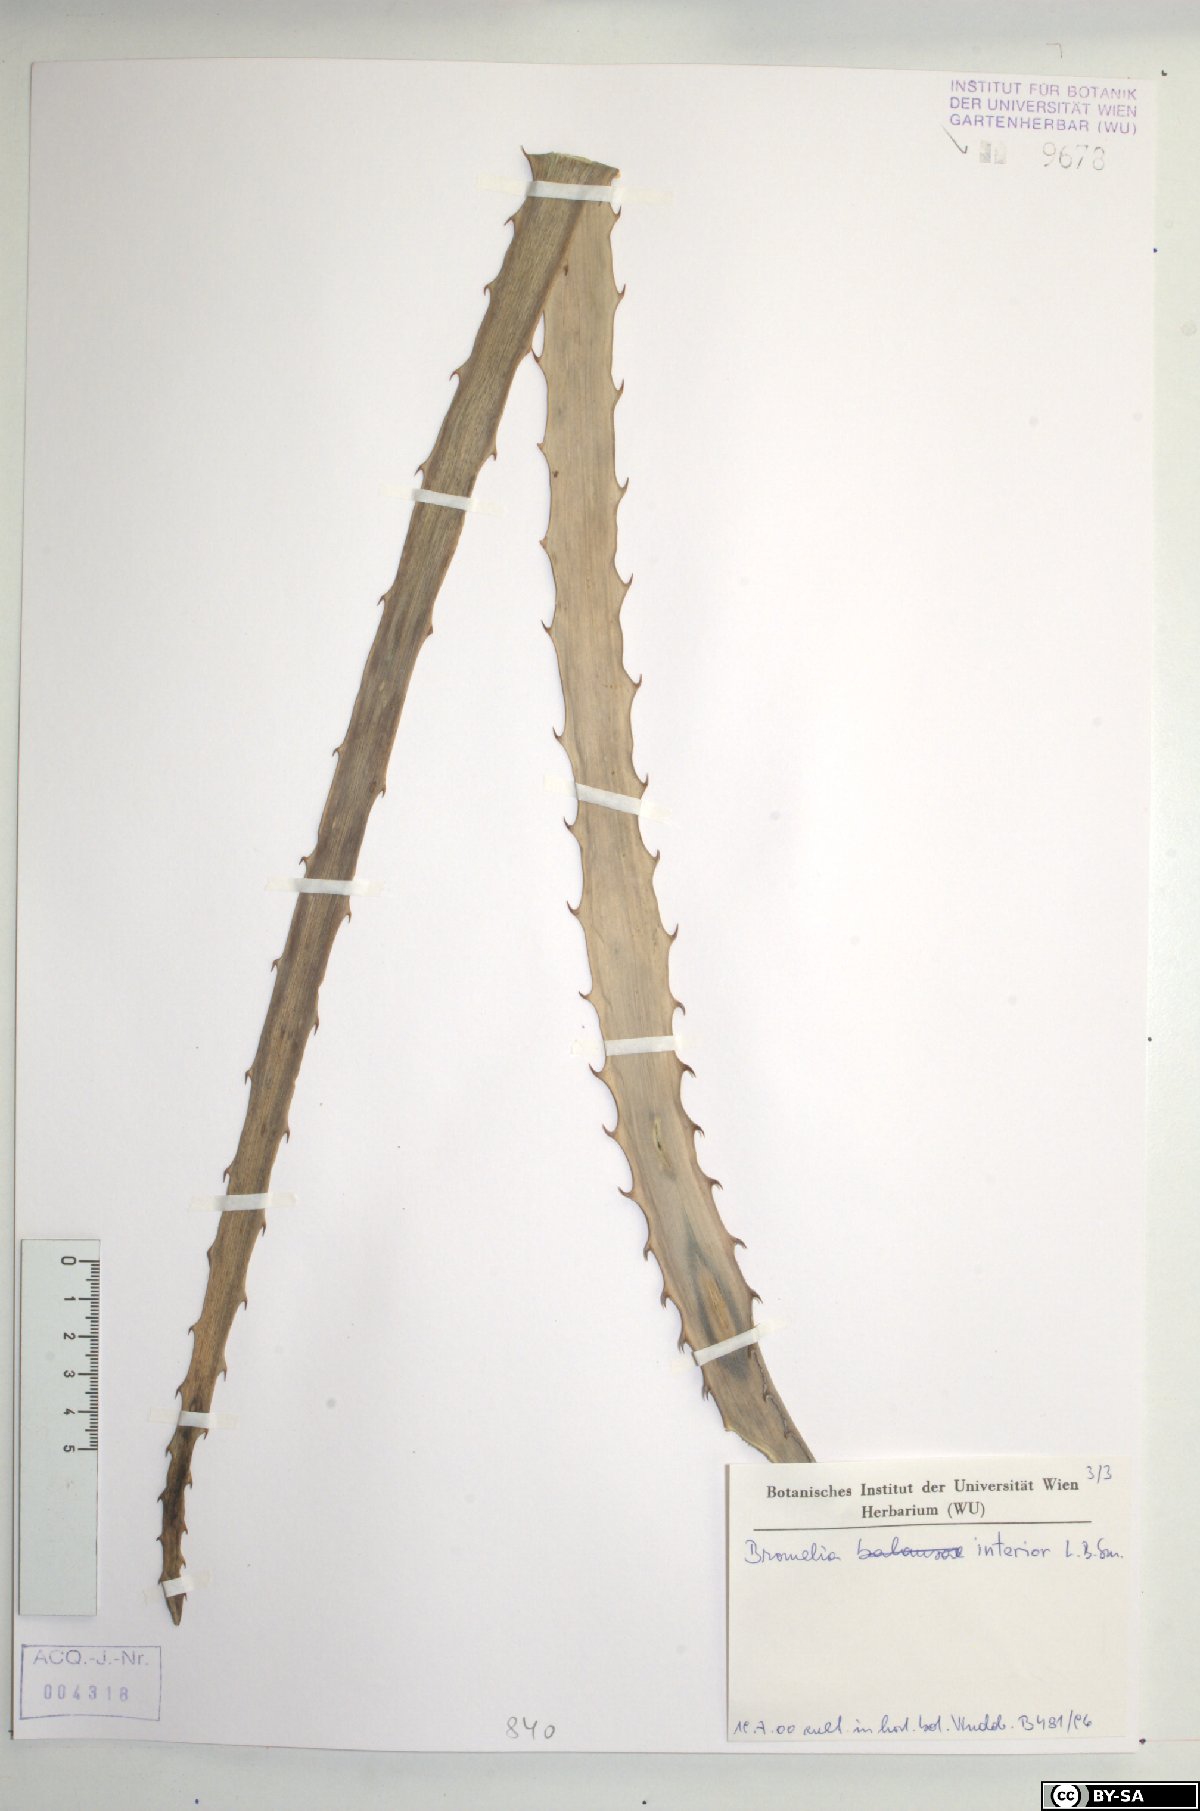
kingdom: Plantae
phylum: Tracheophyta
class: Liliopsida
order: Poales
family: Bromeliaceae
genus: Bromelia
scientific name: Bromelia interior
